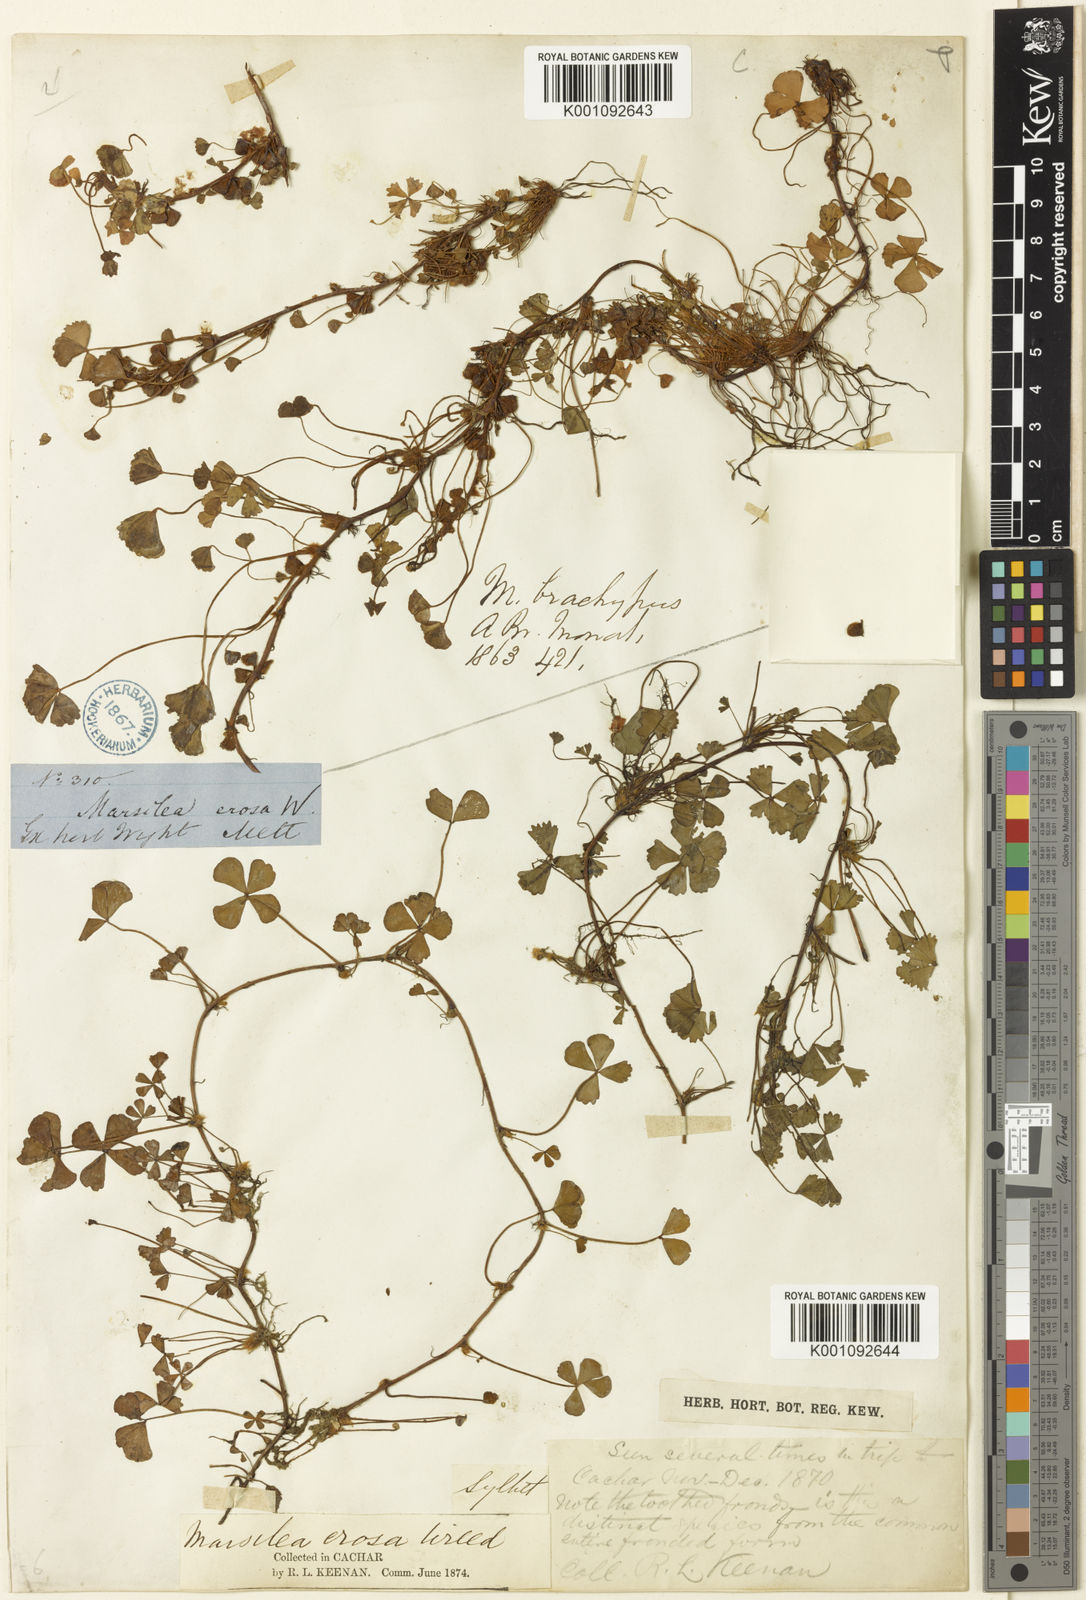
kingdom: Plantae
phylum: Tracheophyta
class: Polypodiopsida
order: Salviniales
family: Marsileaceae
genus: Marsilea
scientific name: Marsilea minuta
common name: Dwarf waterclover
